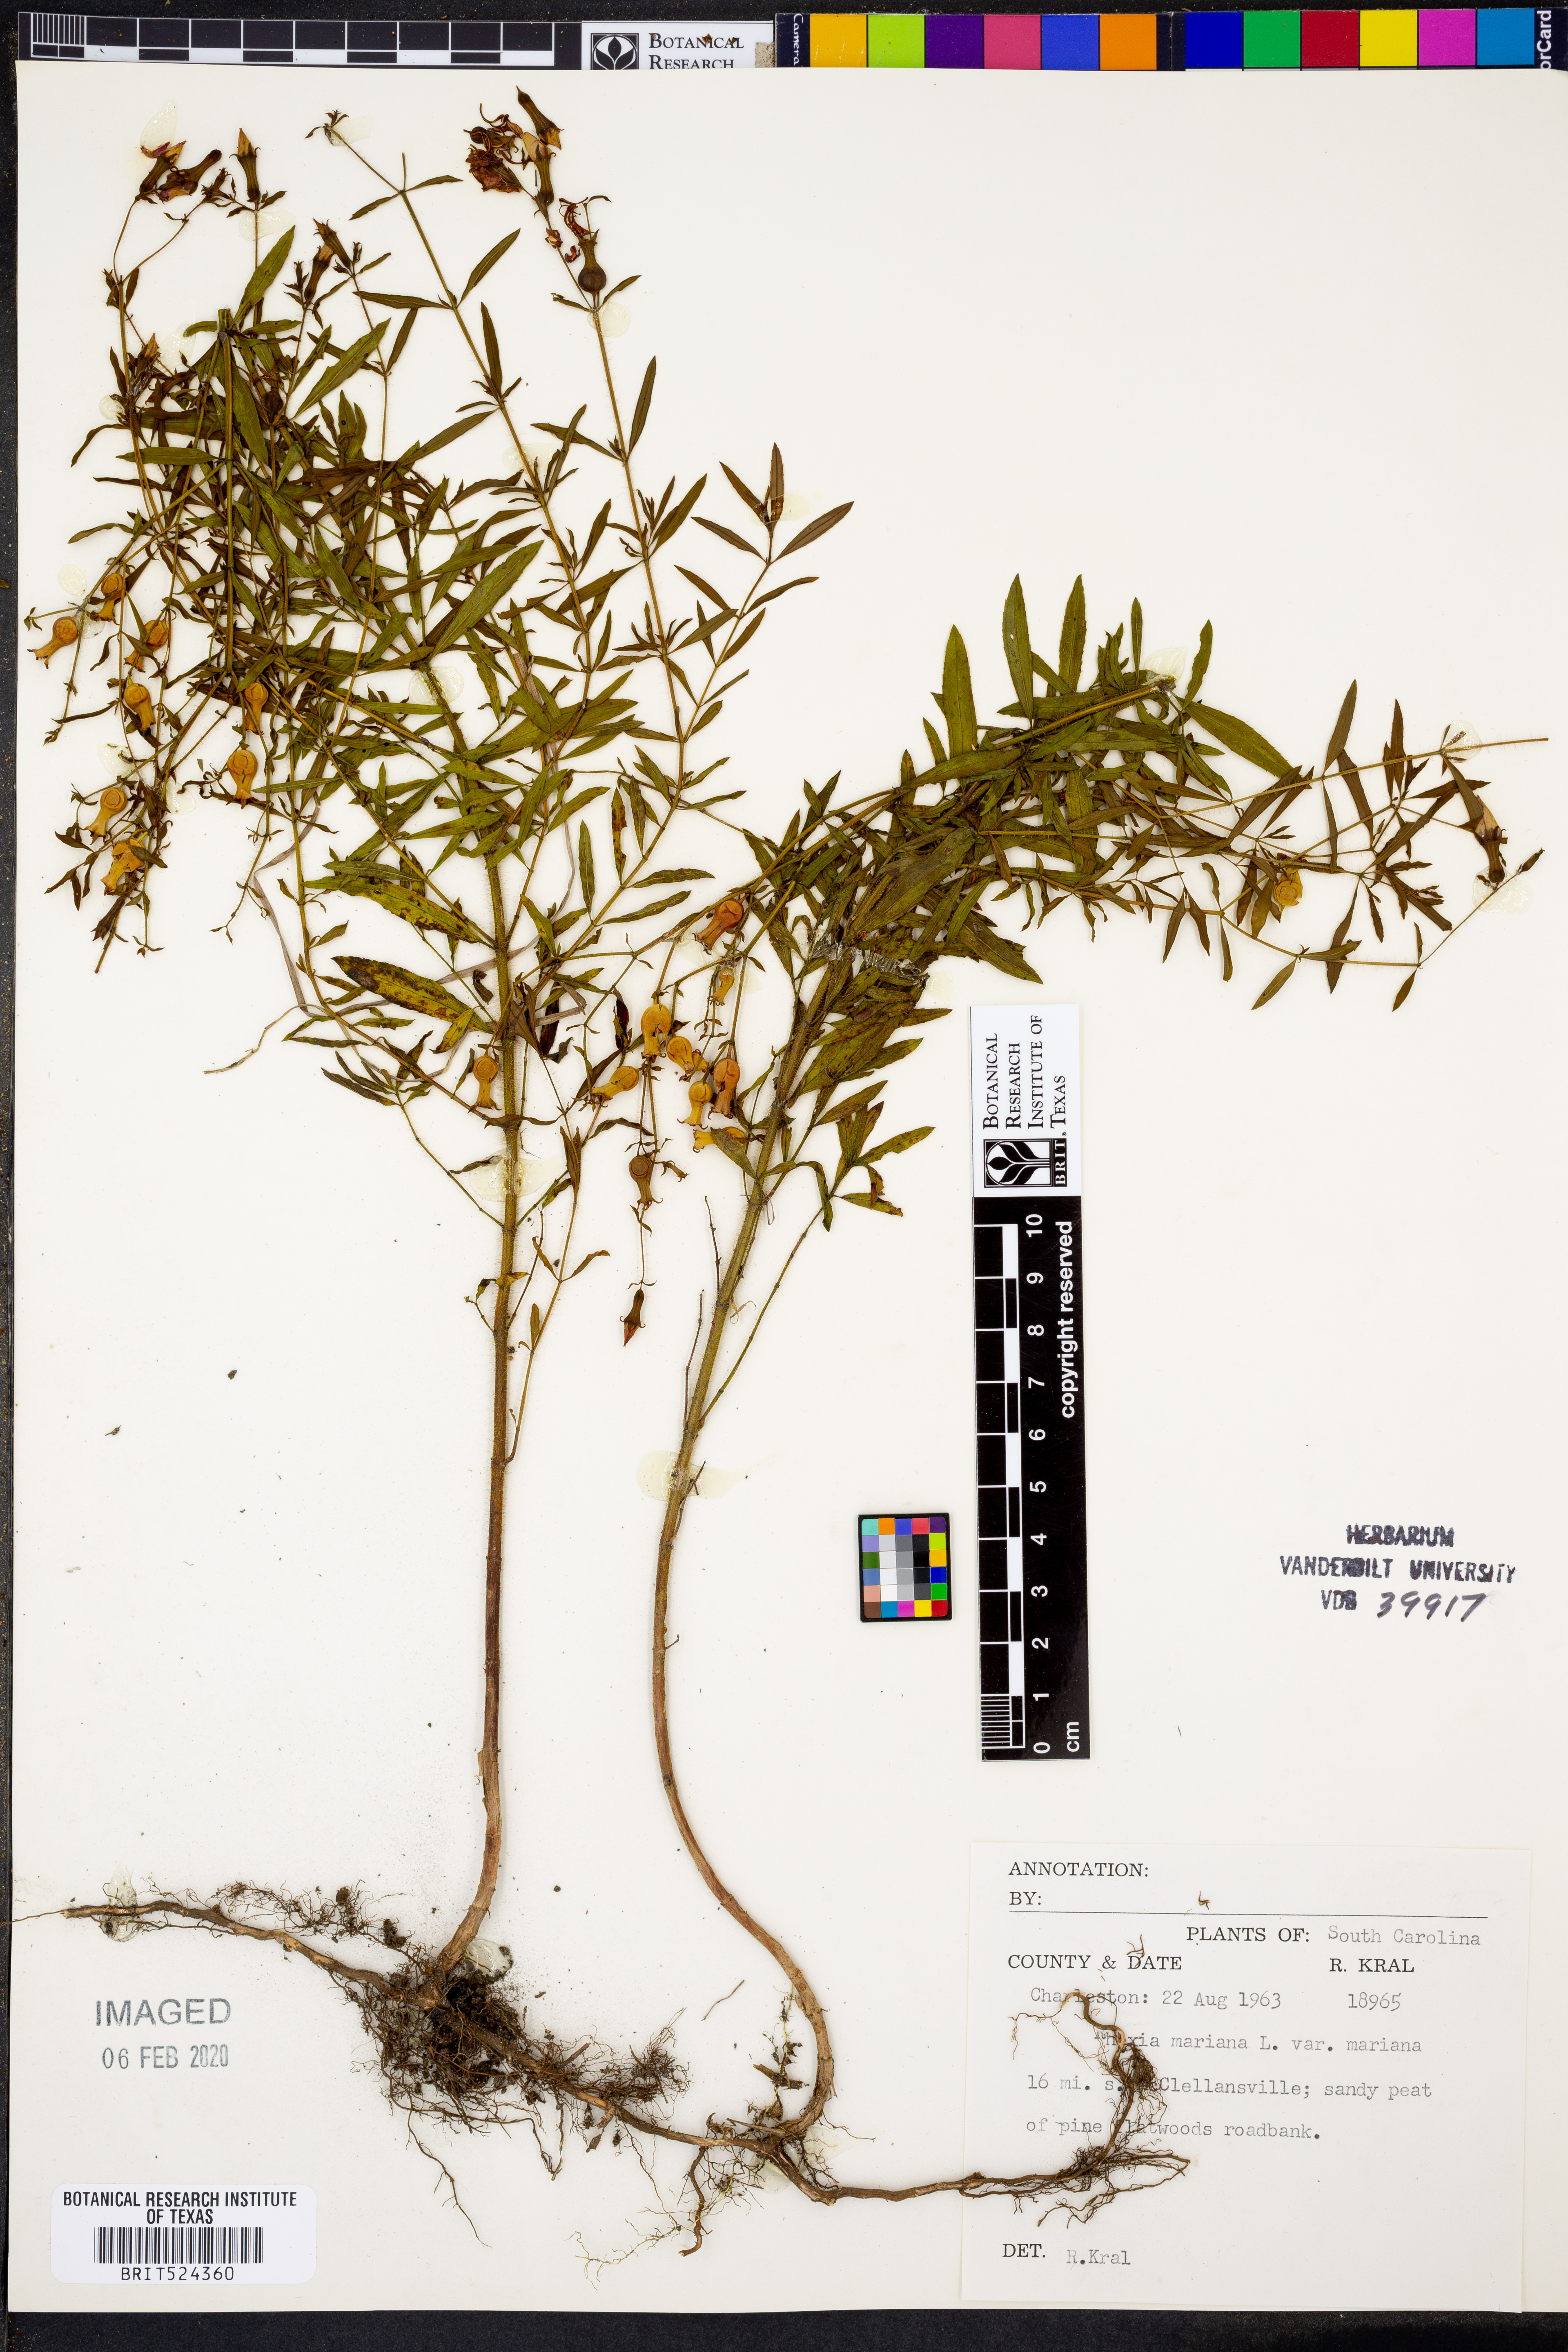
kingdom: Plantae
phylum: Tracheophyta
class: Magnoliopsida
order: Myrtales
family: Melastomataceae
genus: Rhexia
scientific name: Rhexia mariana
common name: Dull meadow-pitcher
